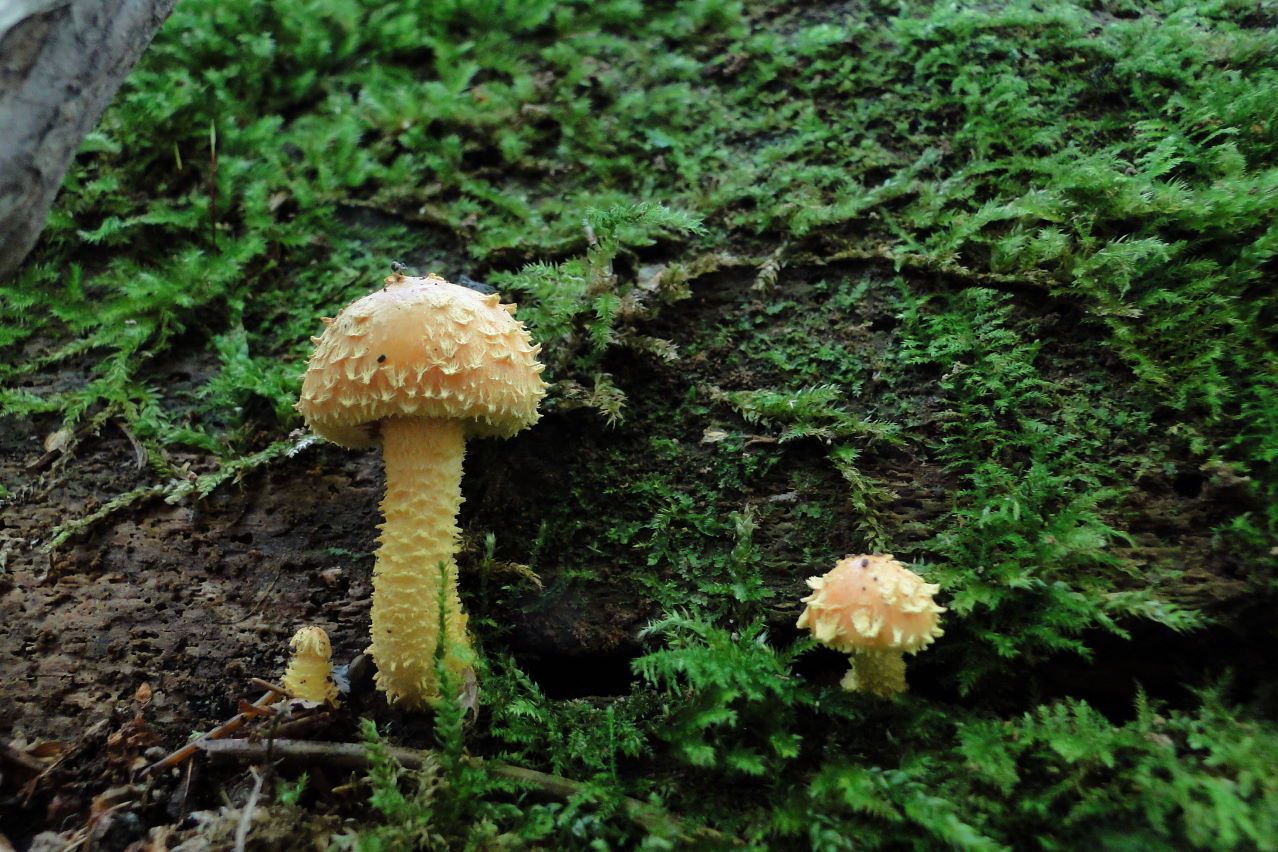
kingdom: Fungi
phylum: Basidiomycota
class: Agaricomycetes
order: Agaricales
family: Strophariaceae
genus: Pholiota
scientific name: Pholiota flammans
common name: flamme-skælhat
